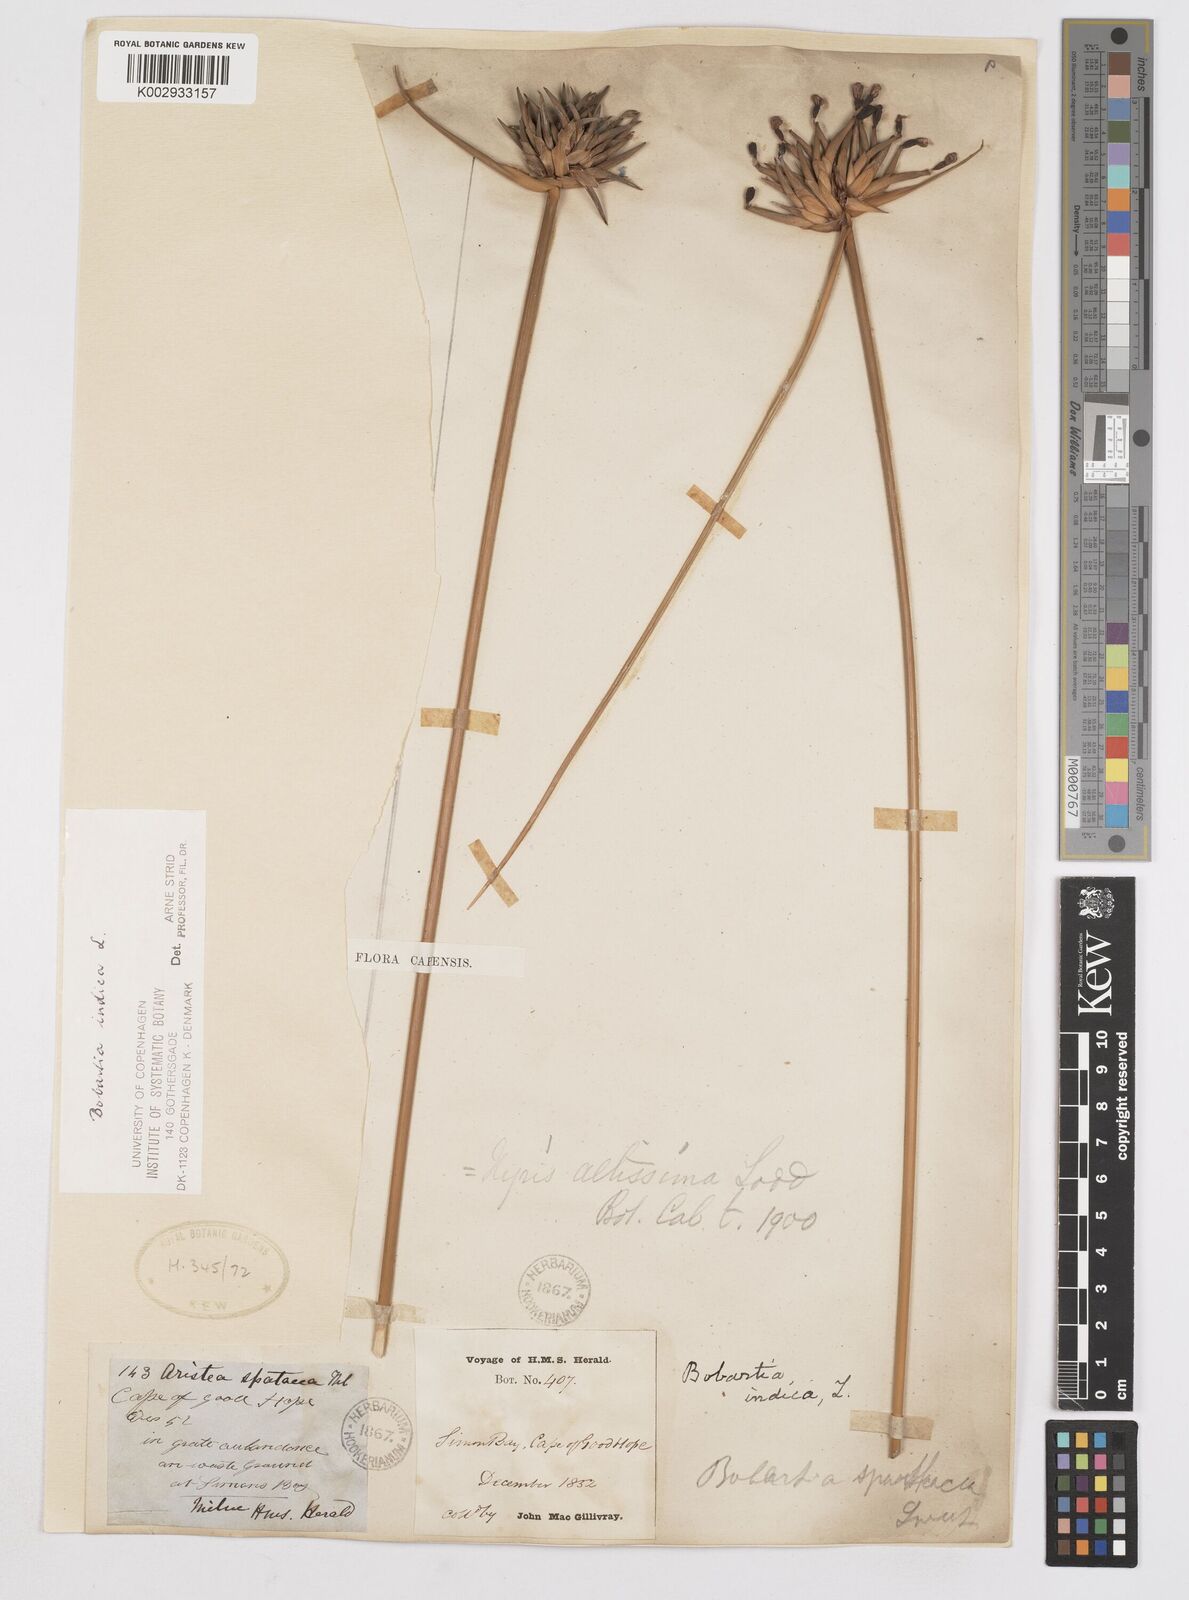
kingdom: Plantae
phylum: Tracheophyta
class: Liliopsida
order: Asparagales
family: Iridaceae
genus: Bobartia
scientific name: Bobartia indica
